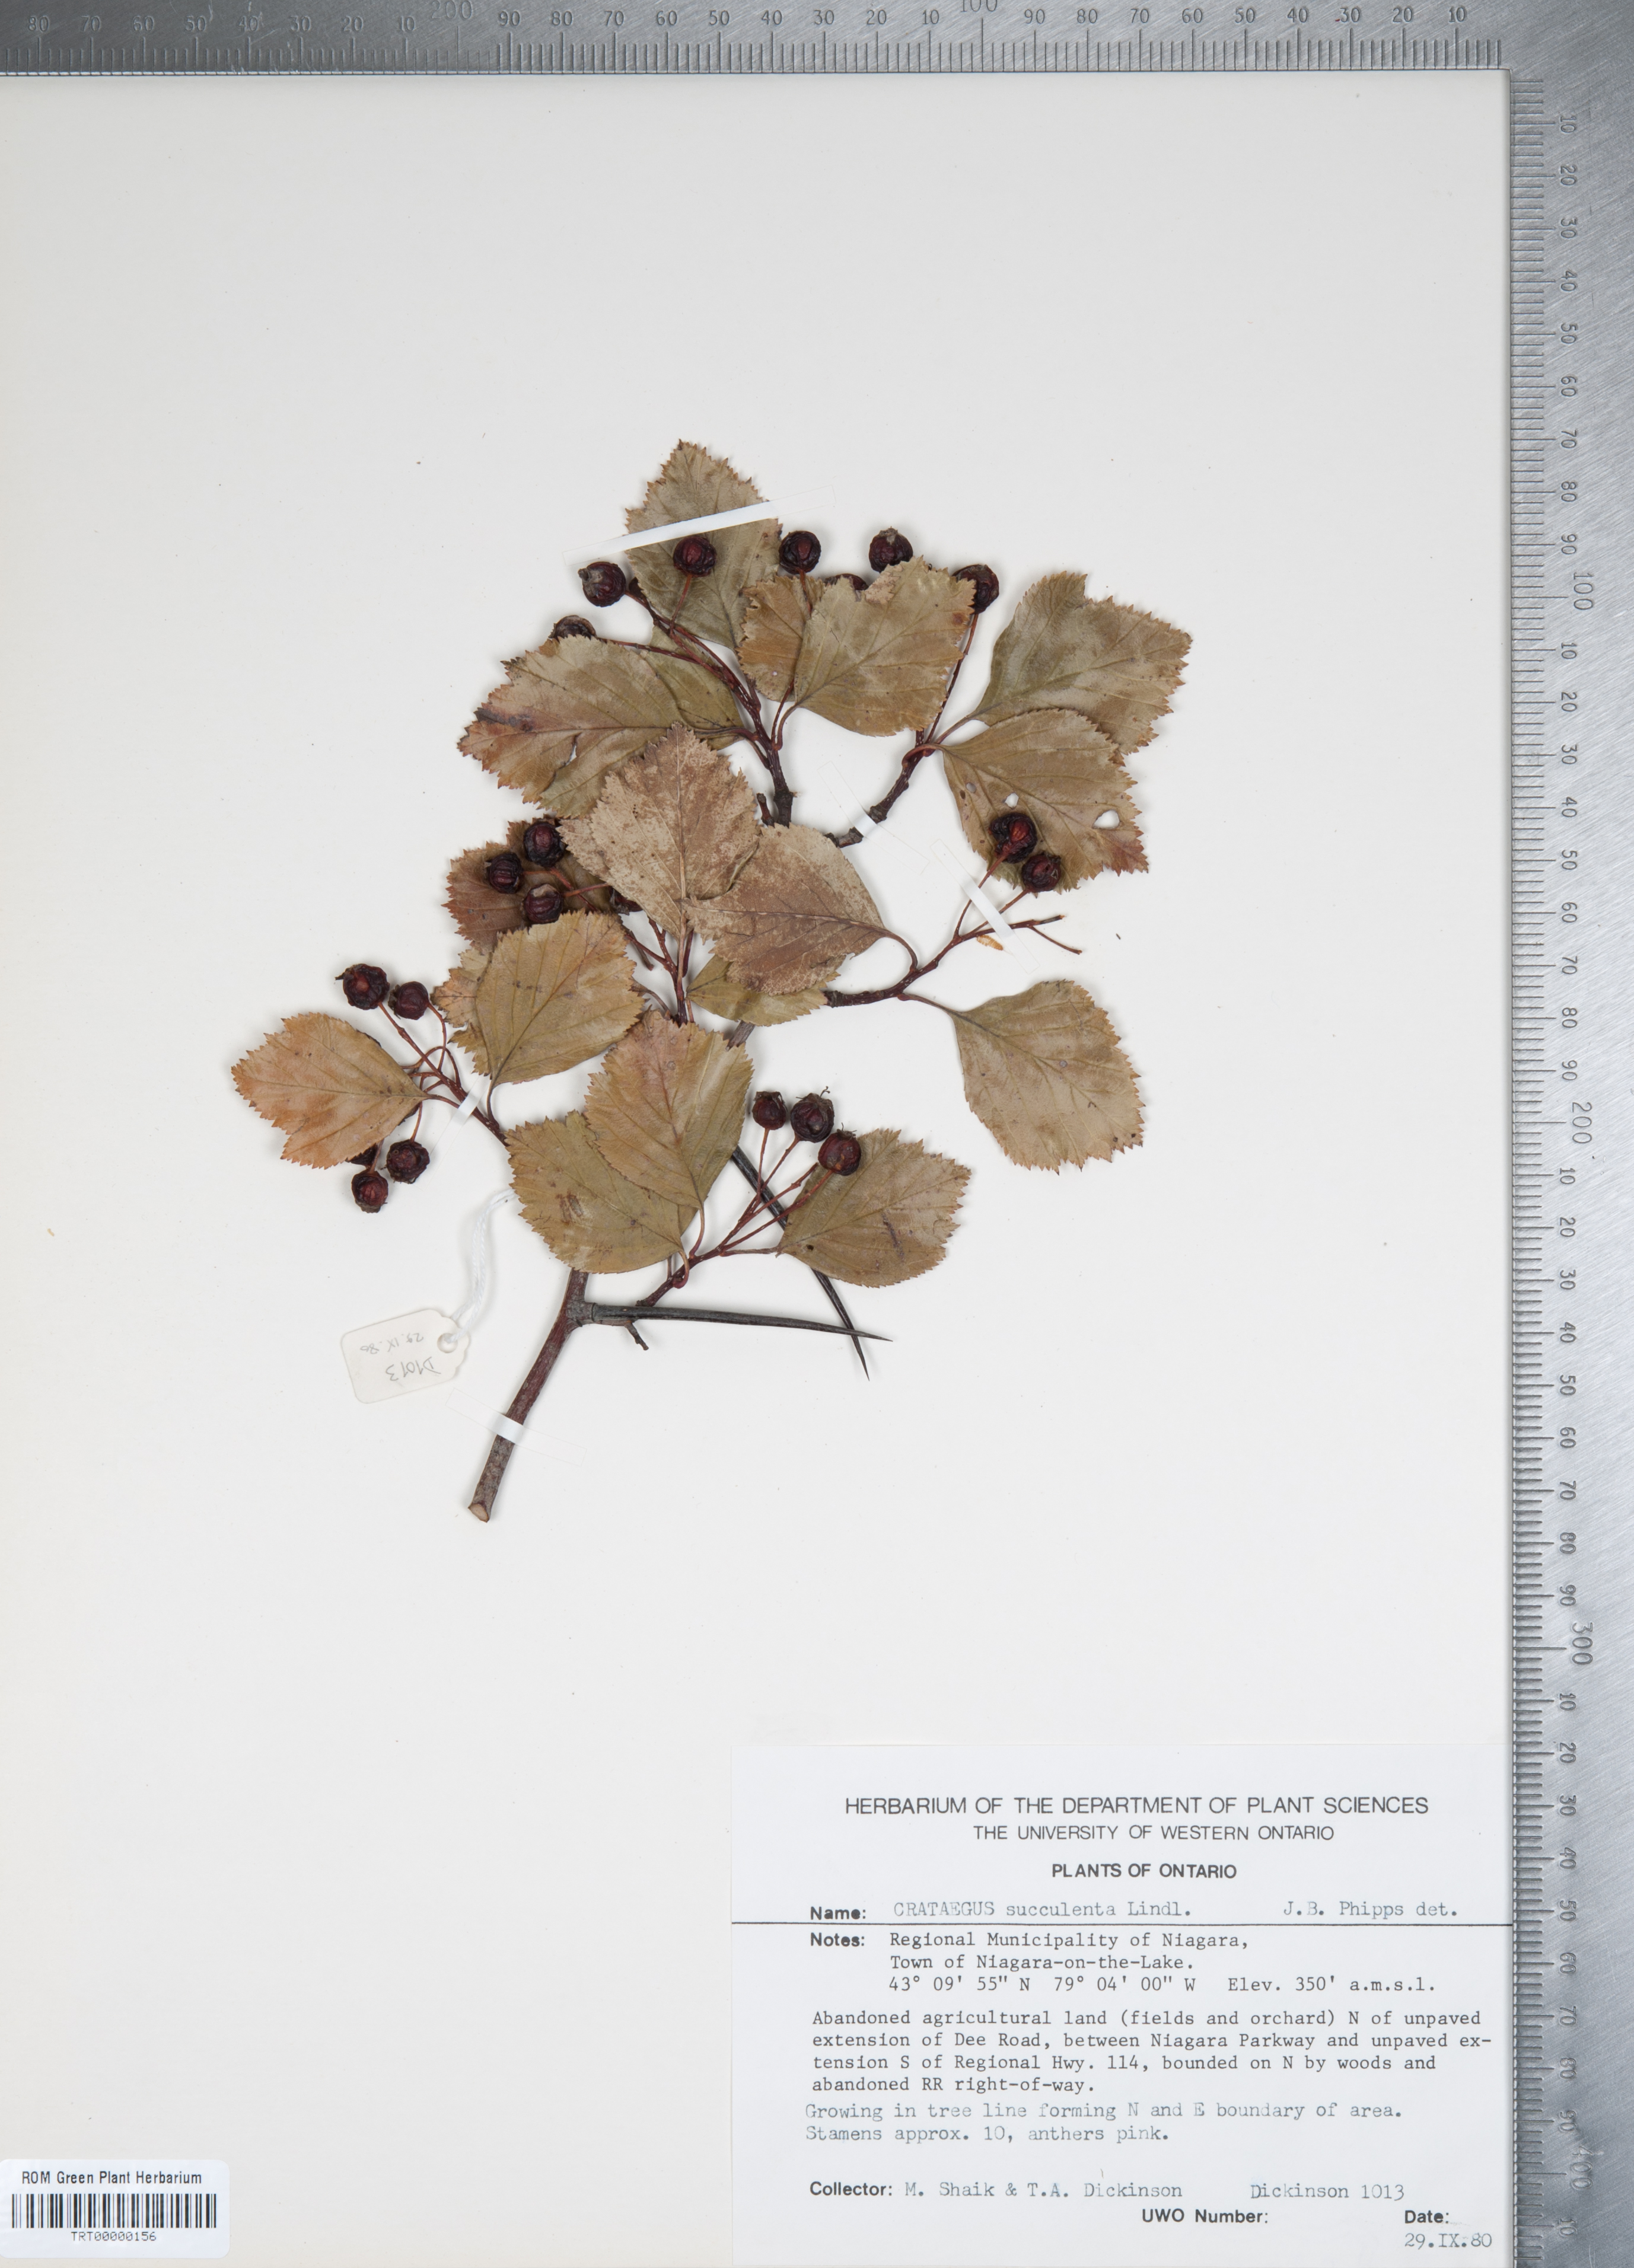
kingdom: Plantae
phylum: Tracheophyta
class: Magnoliopsida
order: Rosales
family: Rosaceae
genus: Crataegus
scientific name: Crataegus succulenta
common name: Fleshy hawthorn
